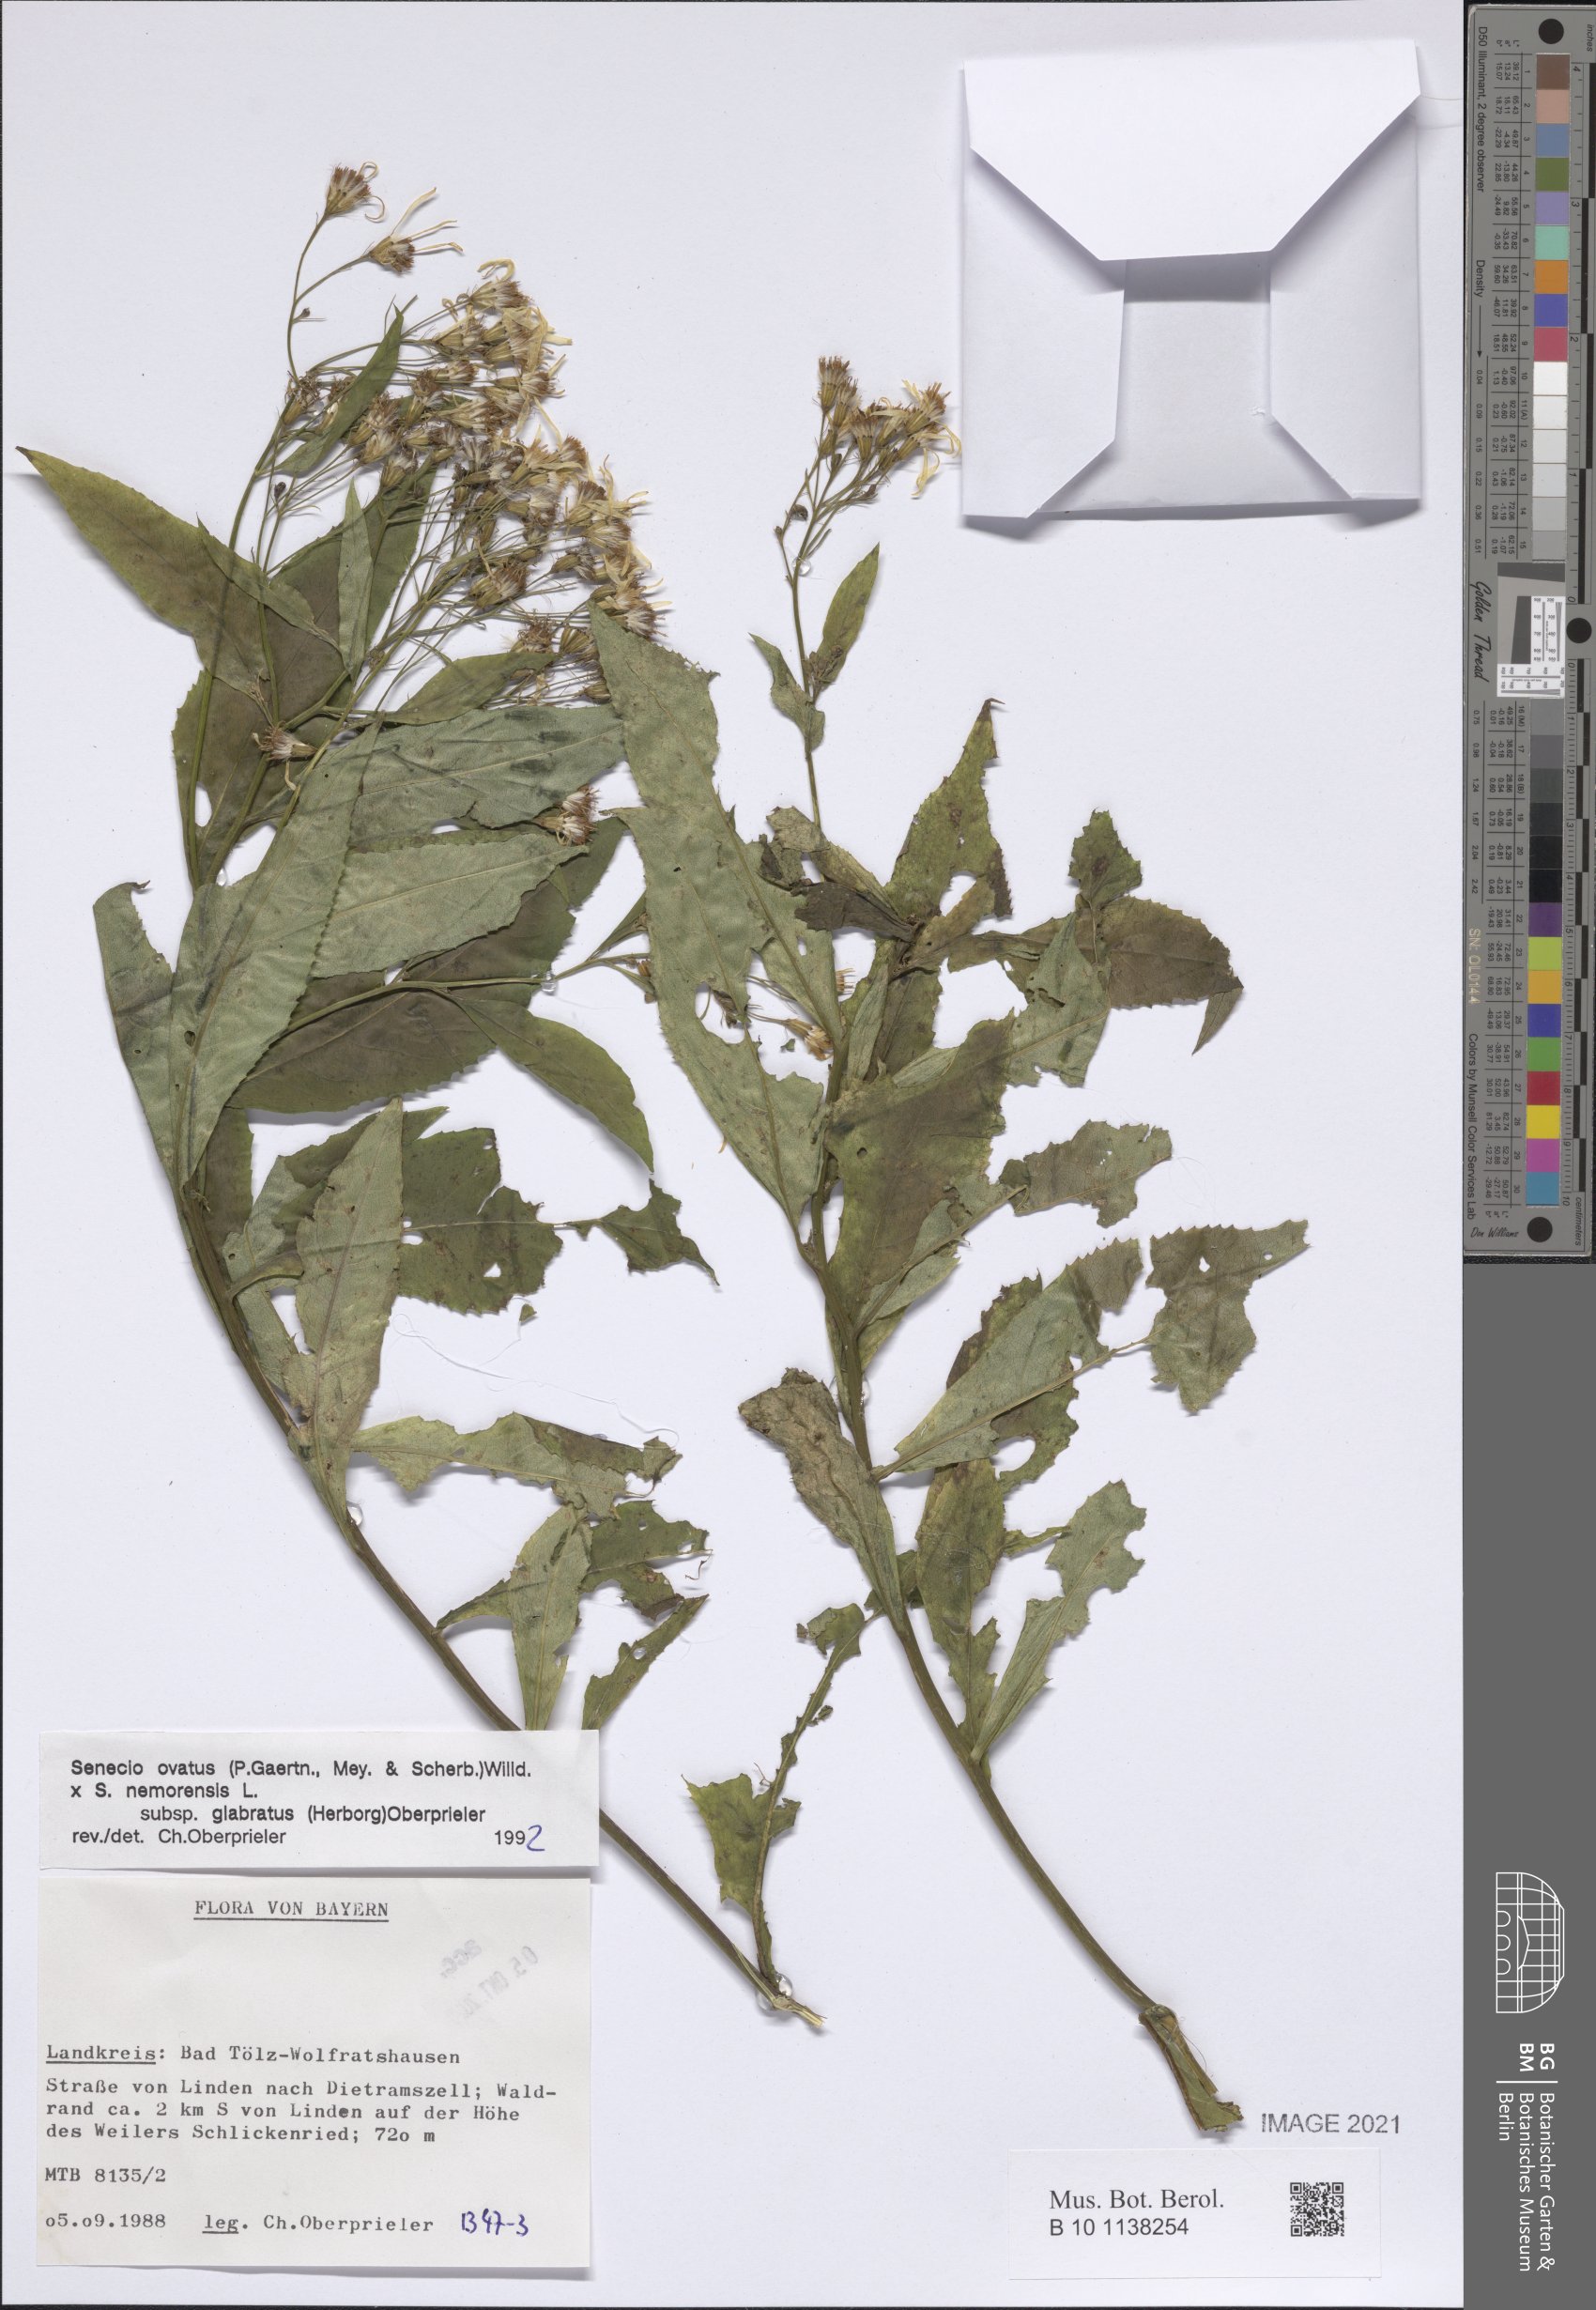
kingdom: Plantae
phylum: Tracheophyta
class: Magnoliopsida
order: Asterales
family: Asteraceae
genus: Senecio
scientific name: Senecio ovatus
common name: Wood ragwort
